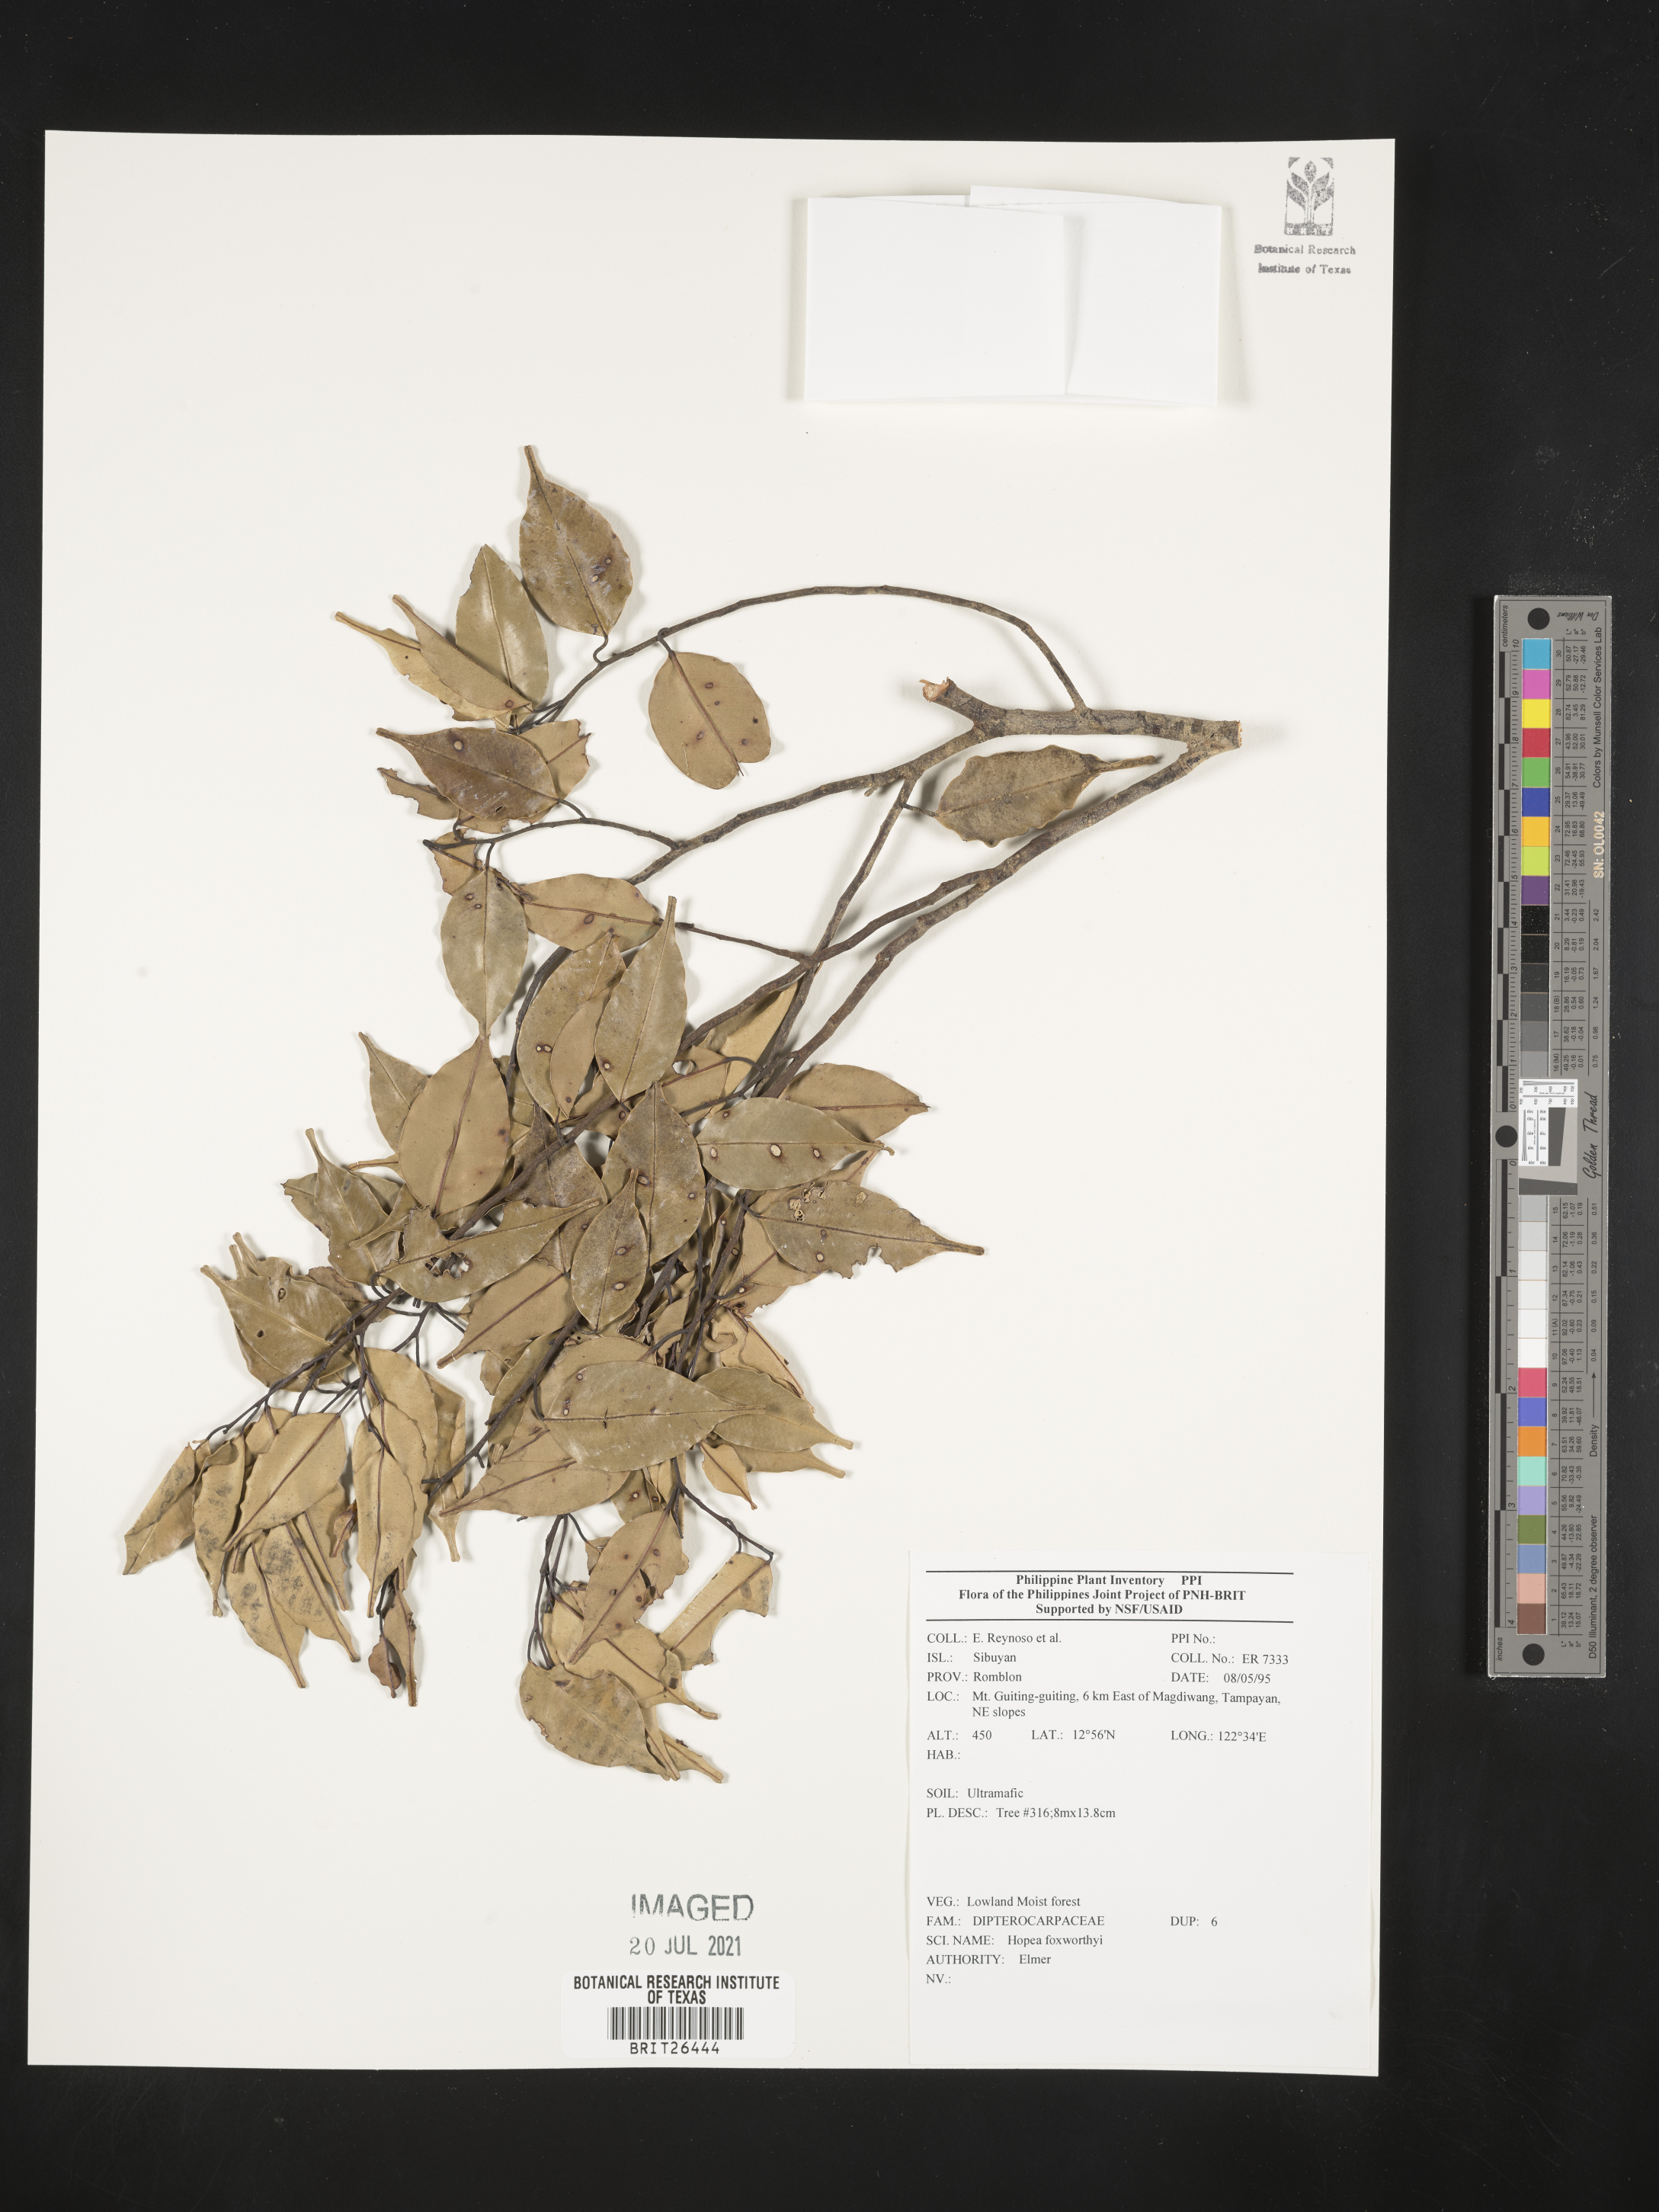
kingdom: Plantae
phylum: Tracheophyta
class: Magnoliopsida
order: Malvales
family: Dipterocarpaceae
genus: Hopea
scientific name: Hopea foxworthyi
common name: Dalingdingan
